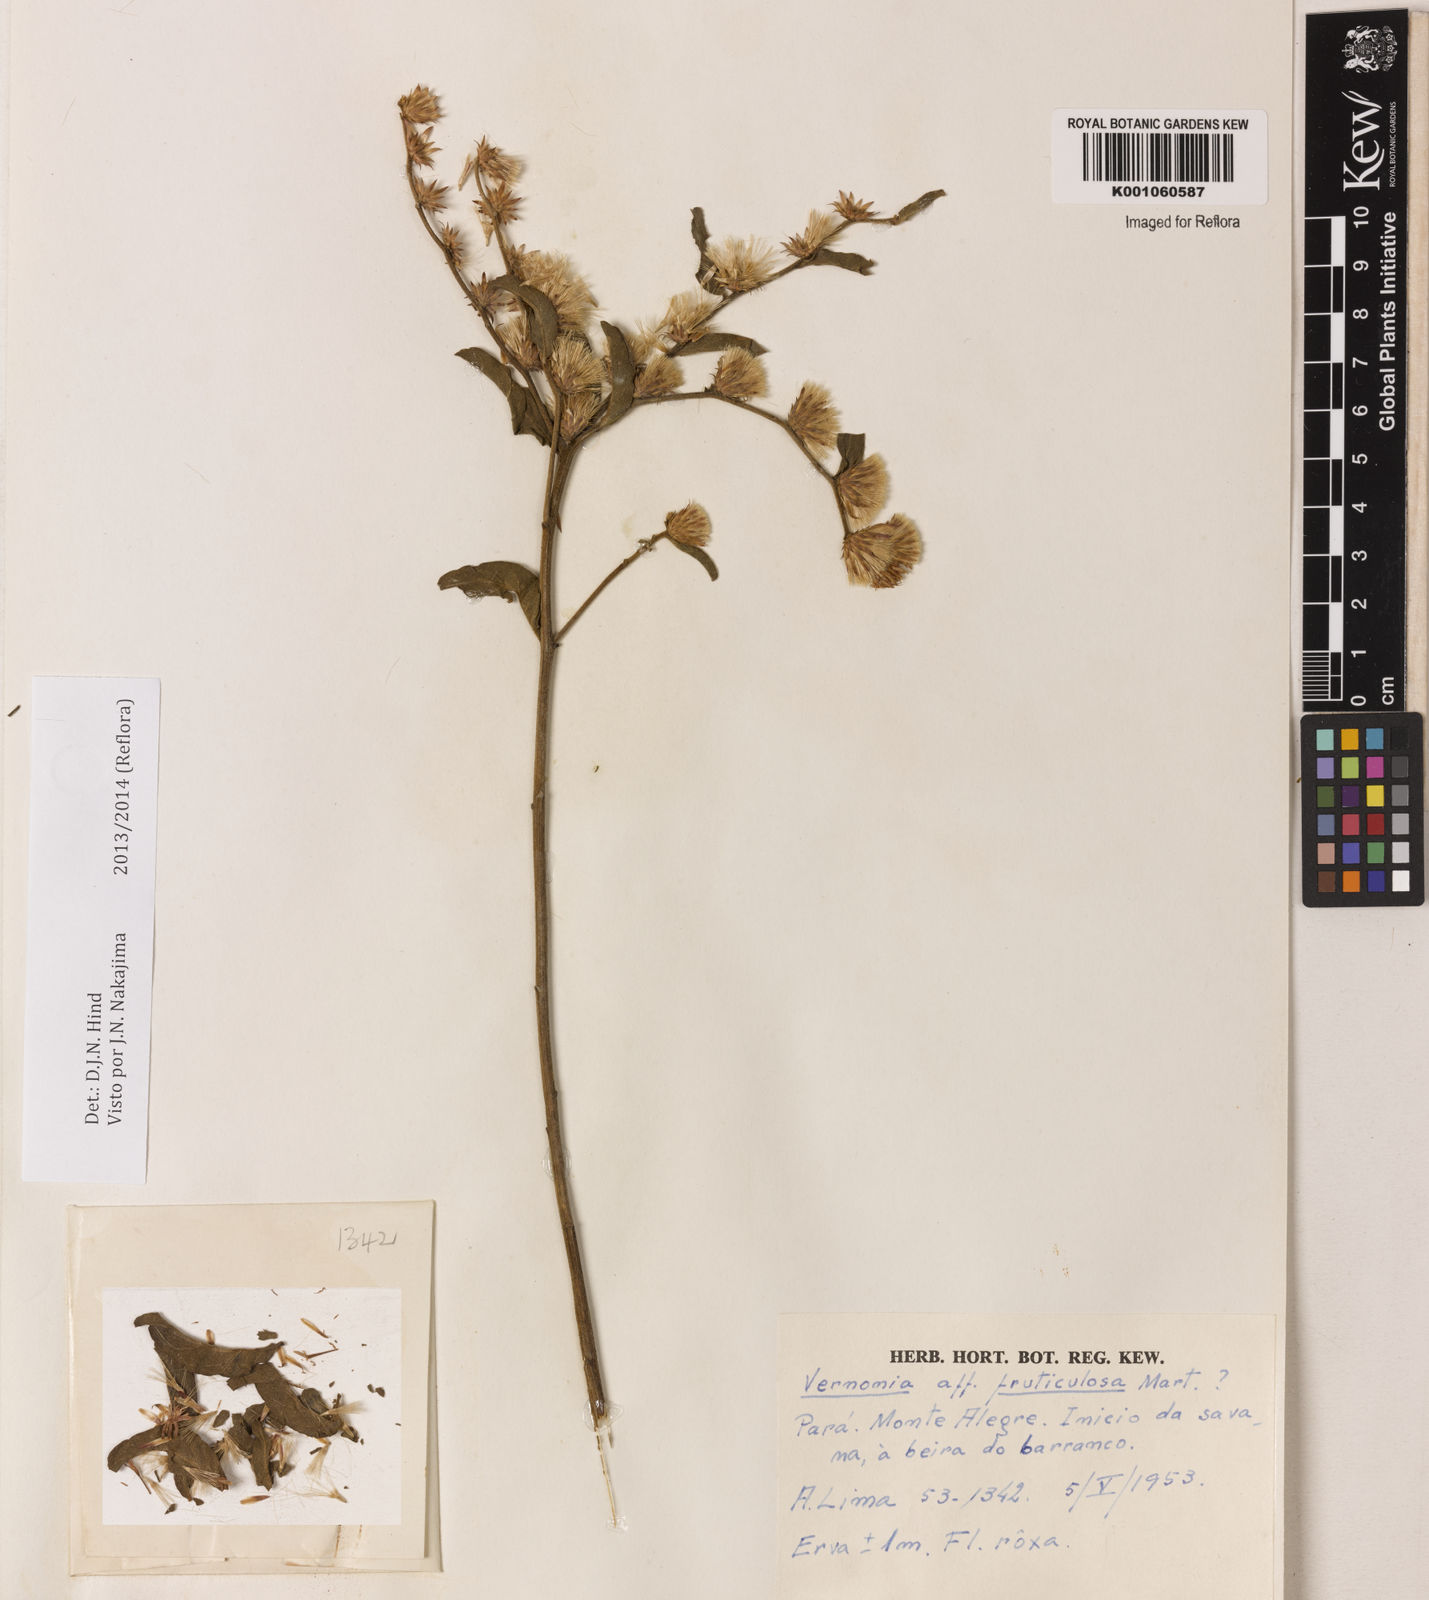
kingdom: Plantae
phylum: Tracheophyta
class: Magnoliopsida
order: Asterales
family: Asteraceae
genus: Lepidaploa
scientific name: Lepidaploa rufogrisea
